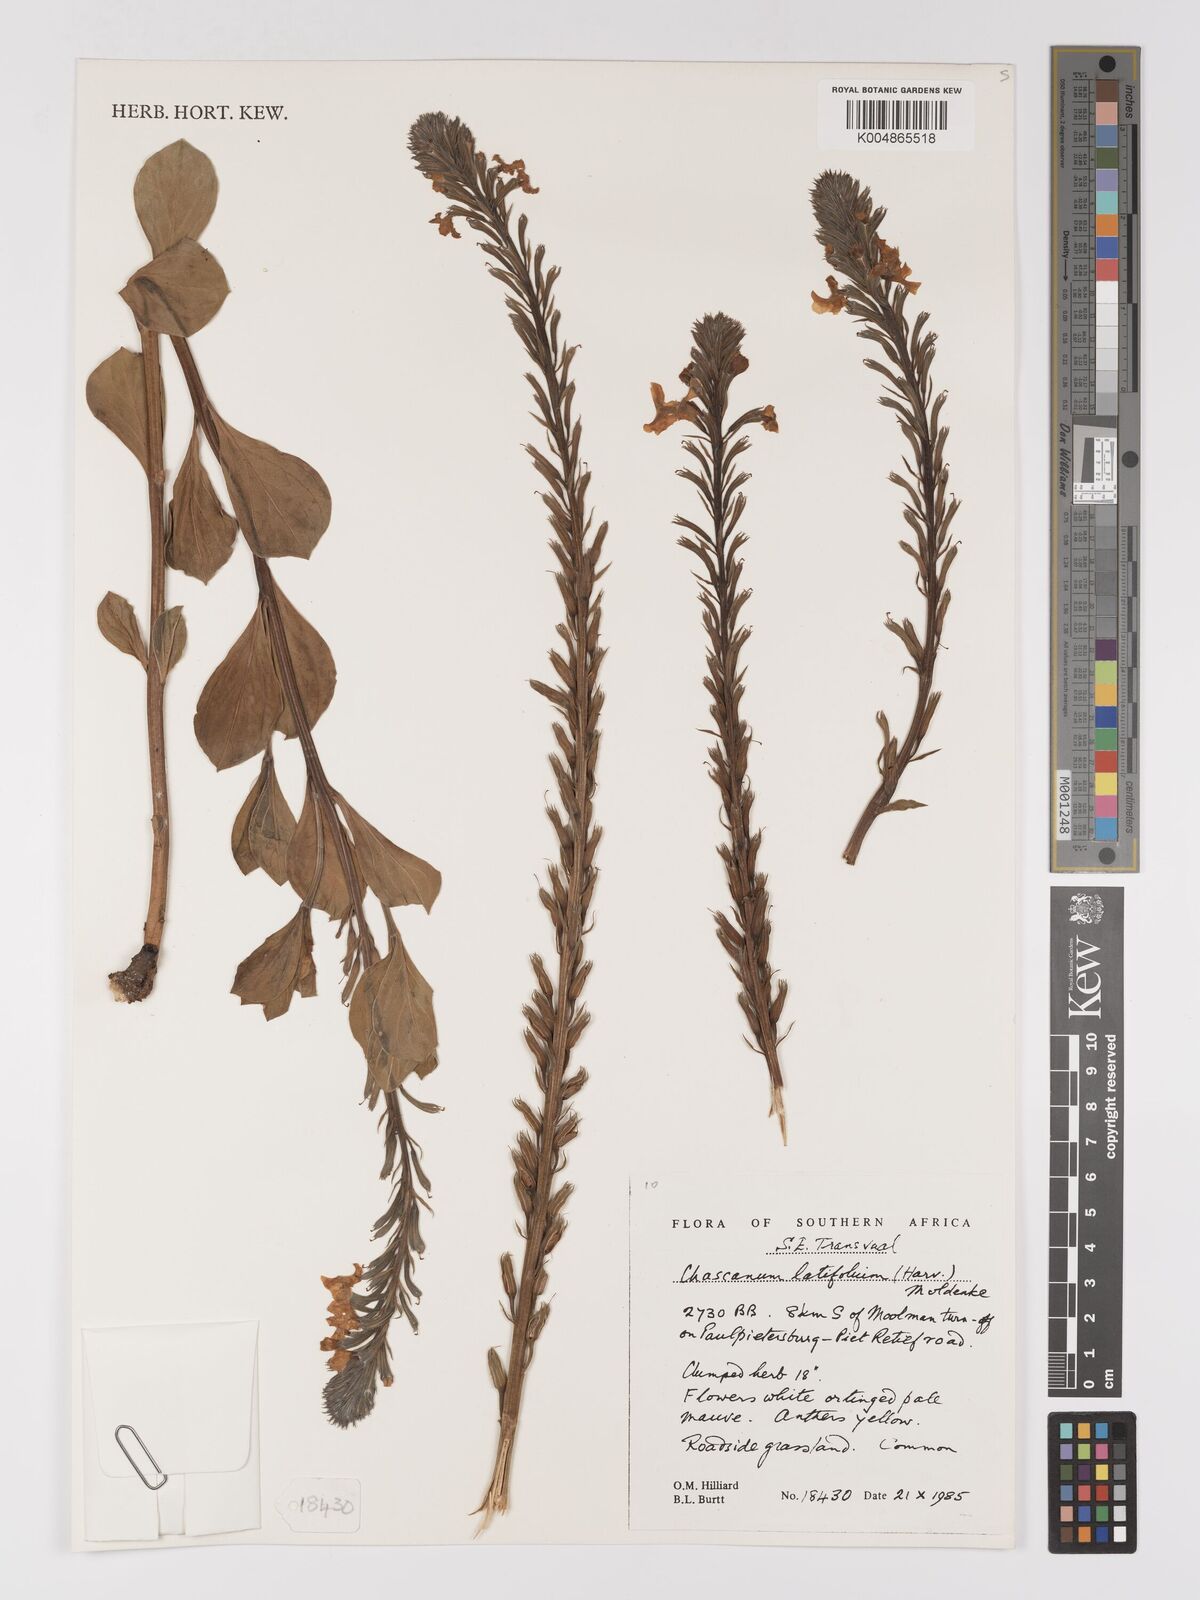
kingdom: Plantae
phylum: Tracheophyta
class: Magnoliopsida
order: Lamiales
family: Verbenaceae
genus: Chascanum
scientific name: Chascanum latifolium
